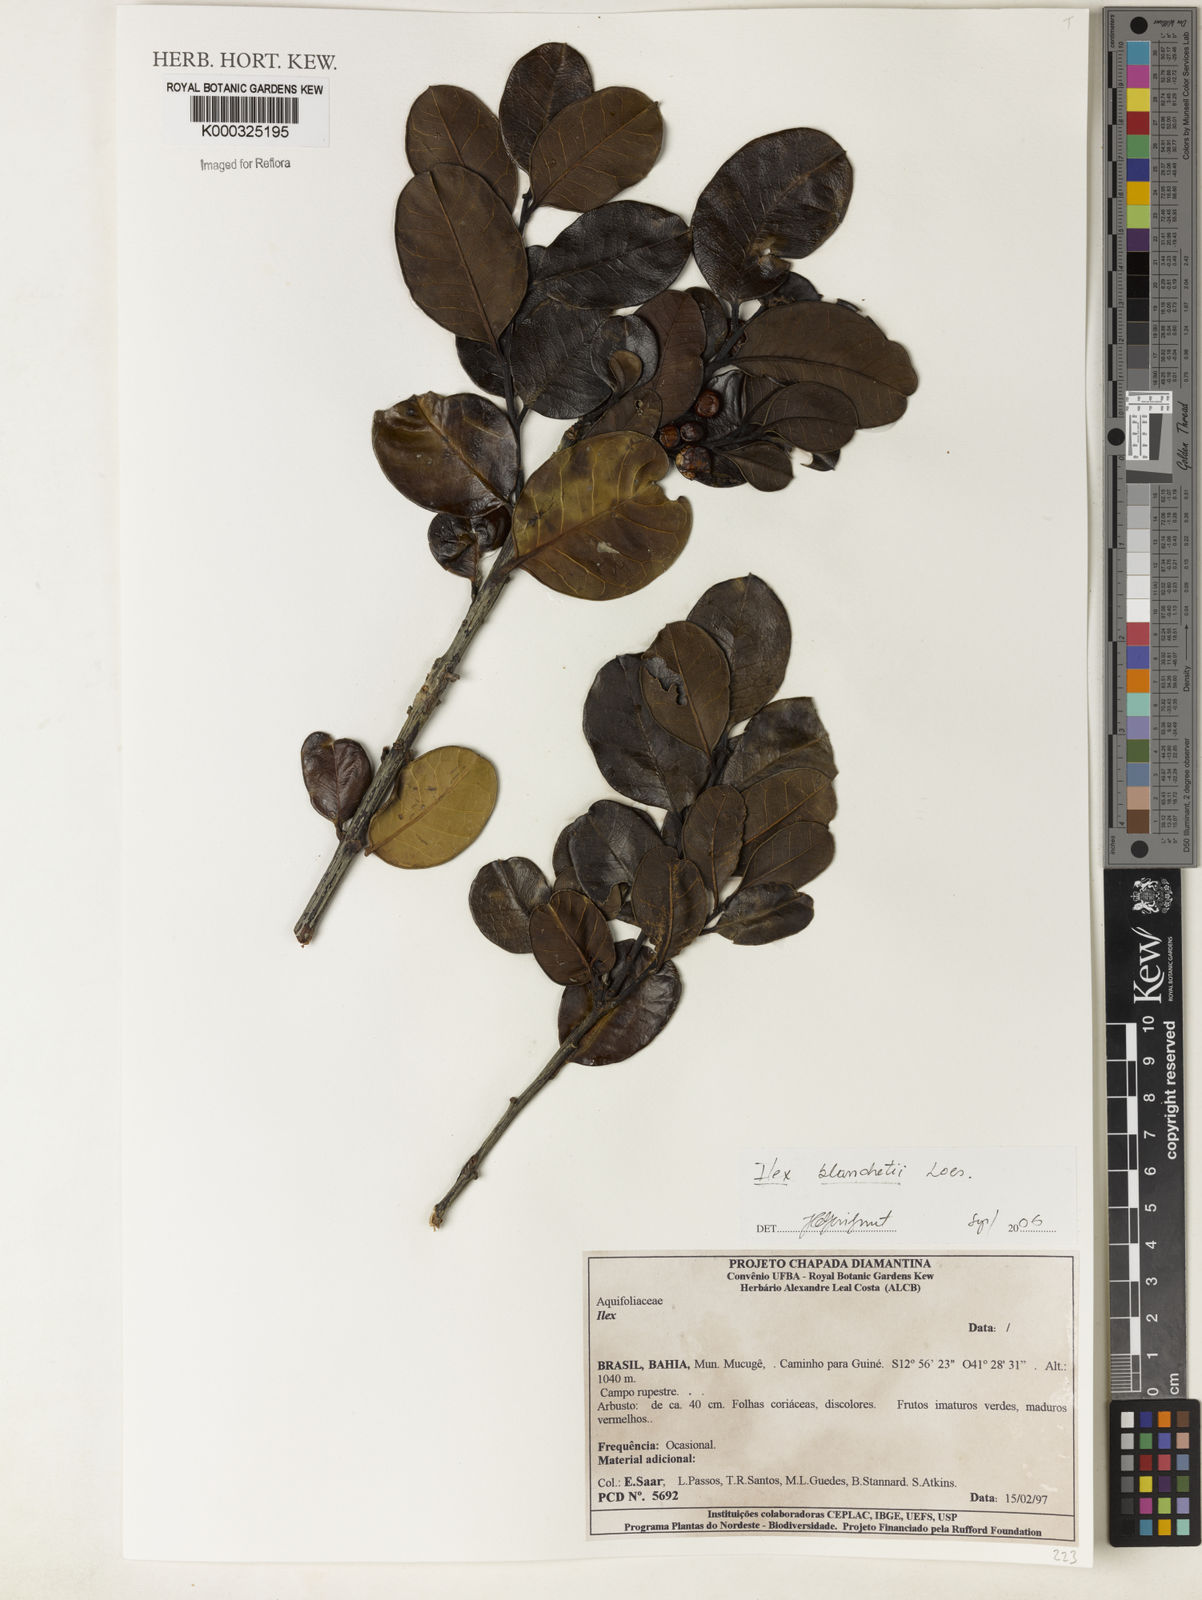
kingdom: Plantae
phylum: Tracheophyta
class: Magnoliopsida
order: Aquifoliales
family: Aquifoliaceae
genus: Ilex
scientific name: Ilex blanchetii
